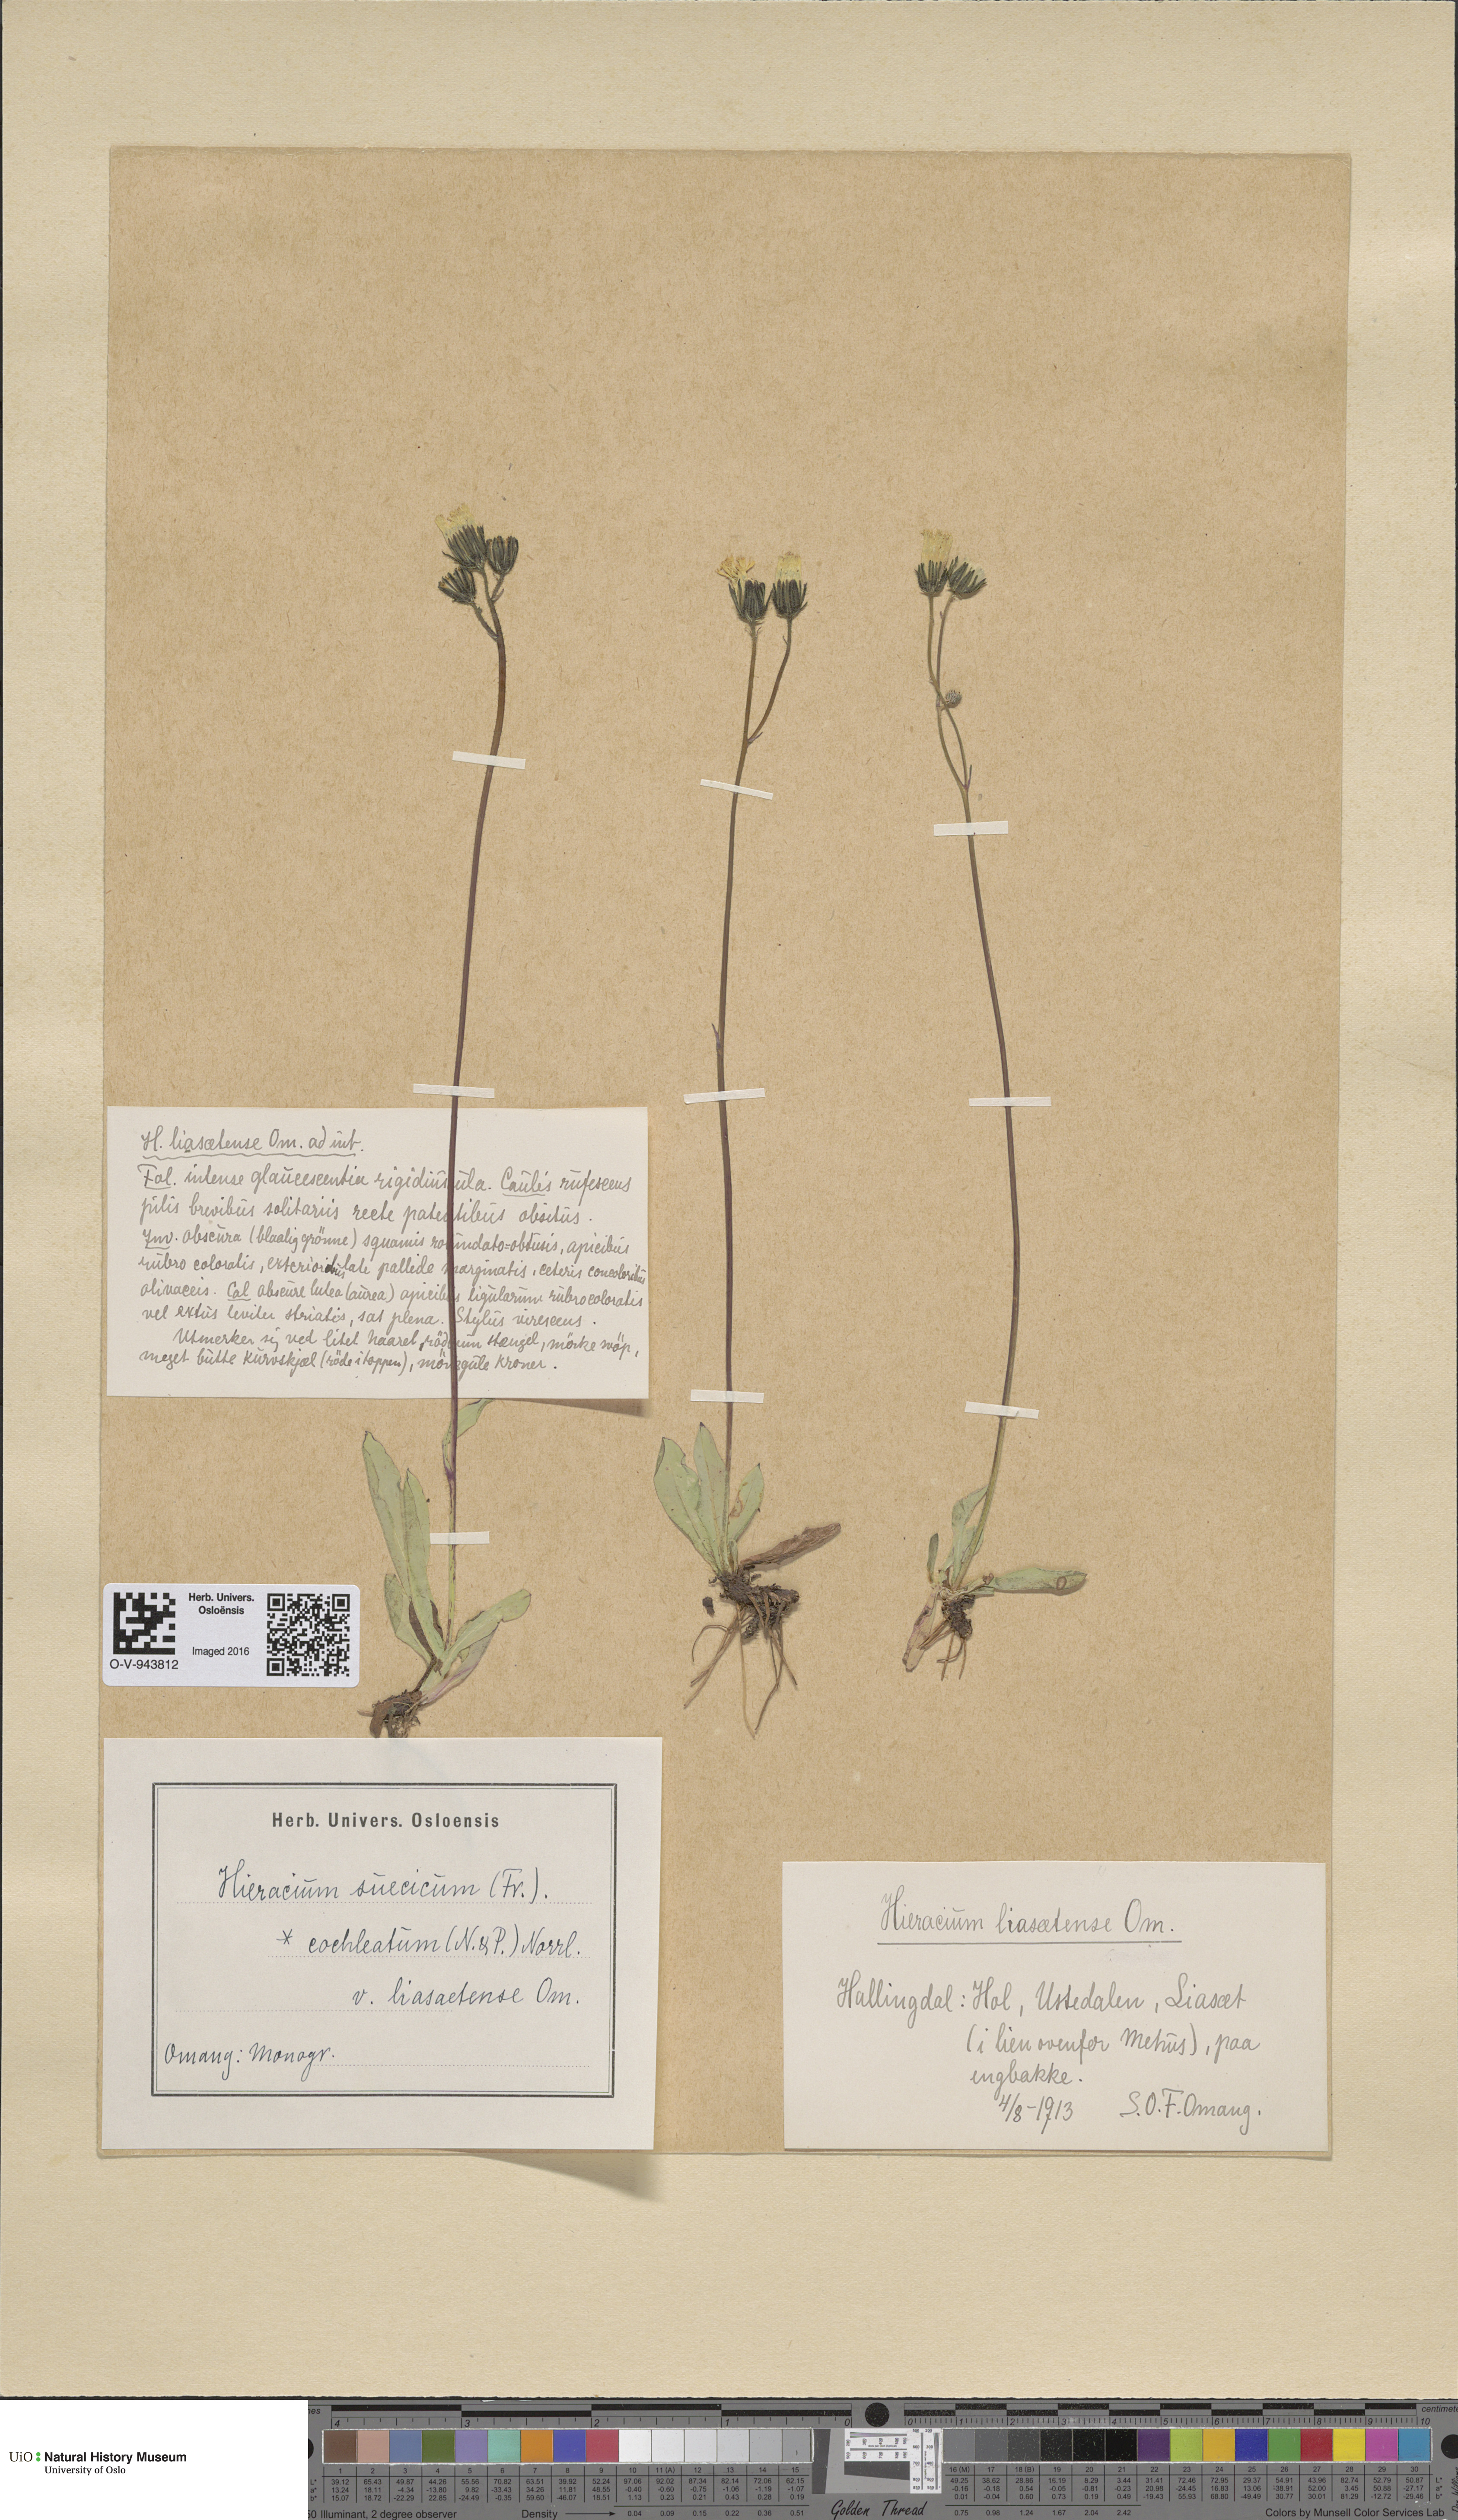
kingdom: Plantae
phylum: Tracheophyta
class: Magnoliopsida
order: Asterales
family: Asteraceae
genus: Pilosella
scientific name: Pilosella dubia
